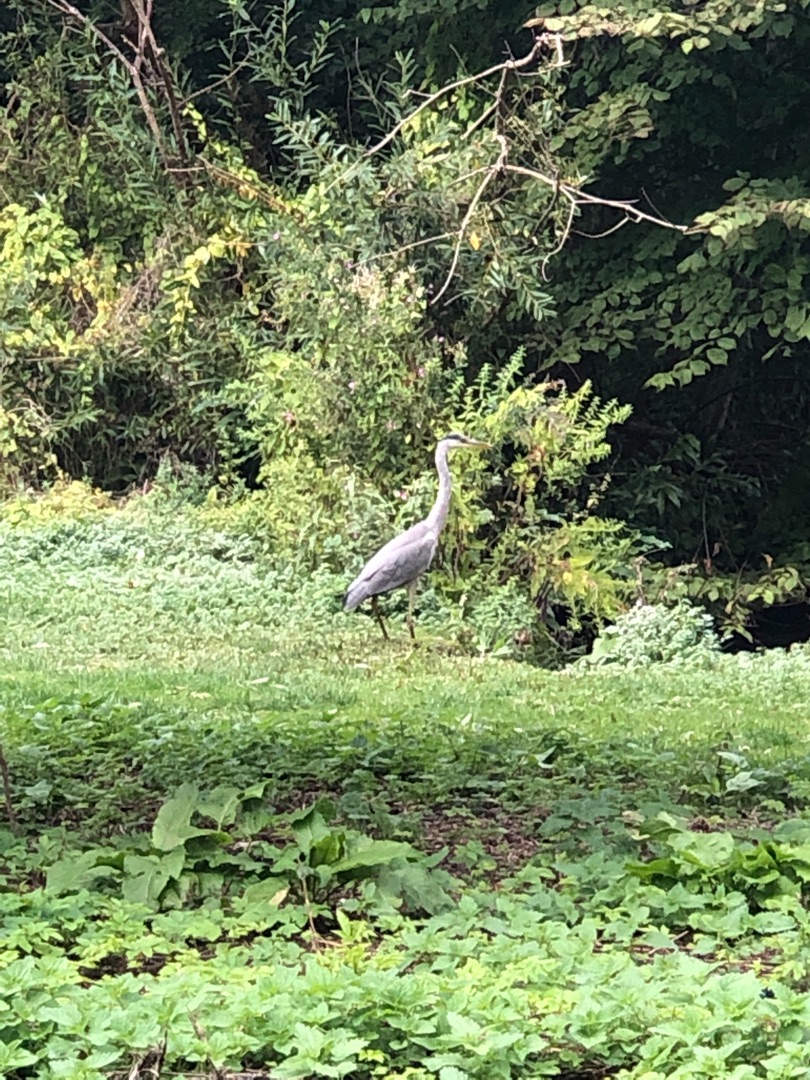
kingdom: Animalia
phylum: Chordata
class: Aves
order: Pelecaniformes
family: Ardeidae
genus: Ardea
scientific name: Ardea cinerea
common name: Fiskehejre
